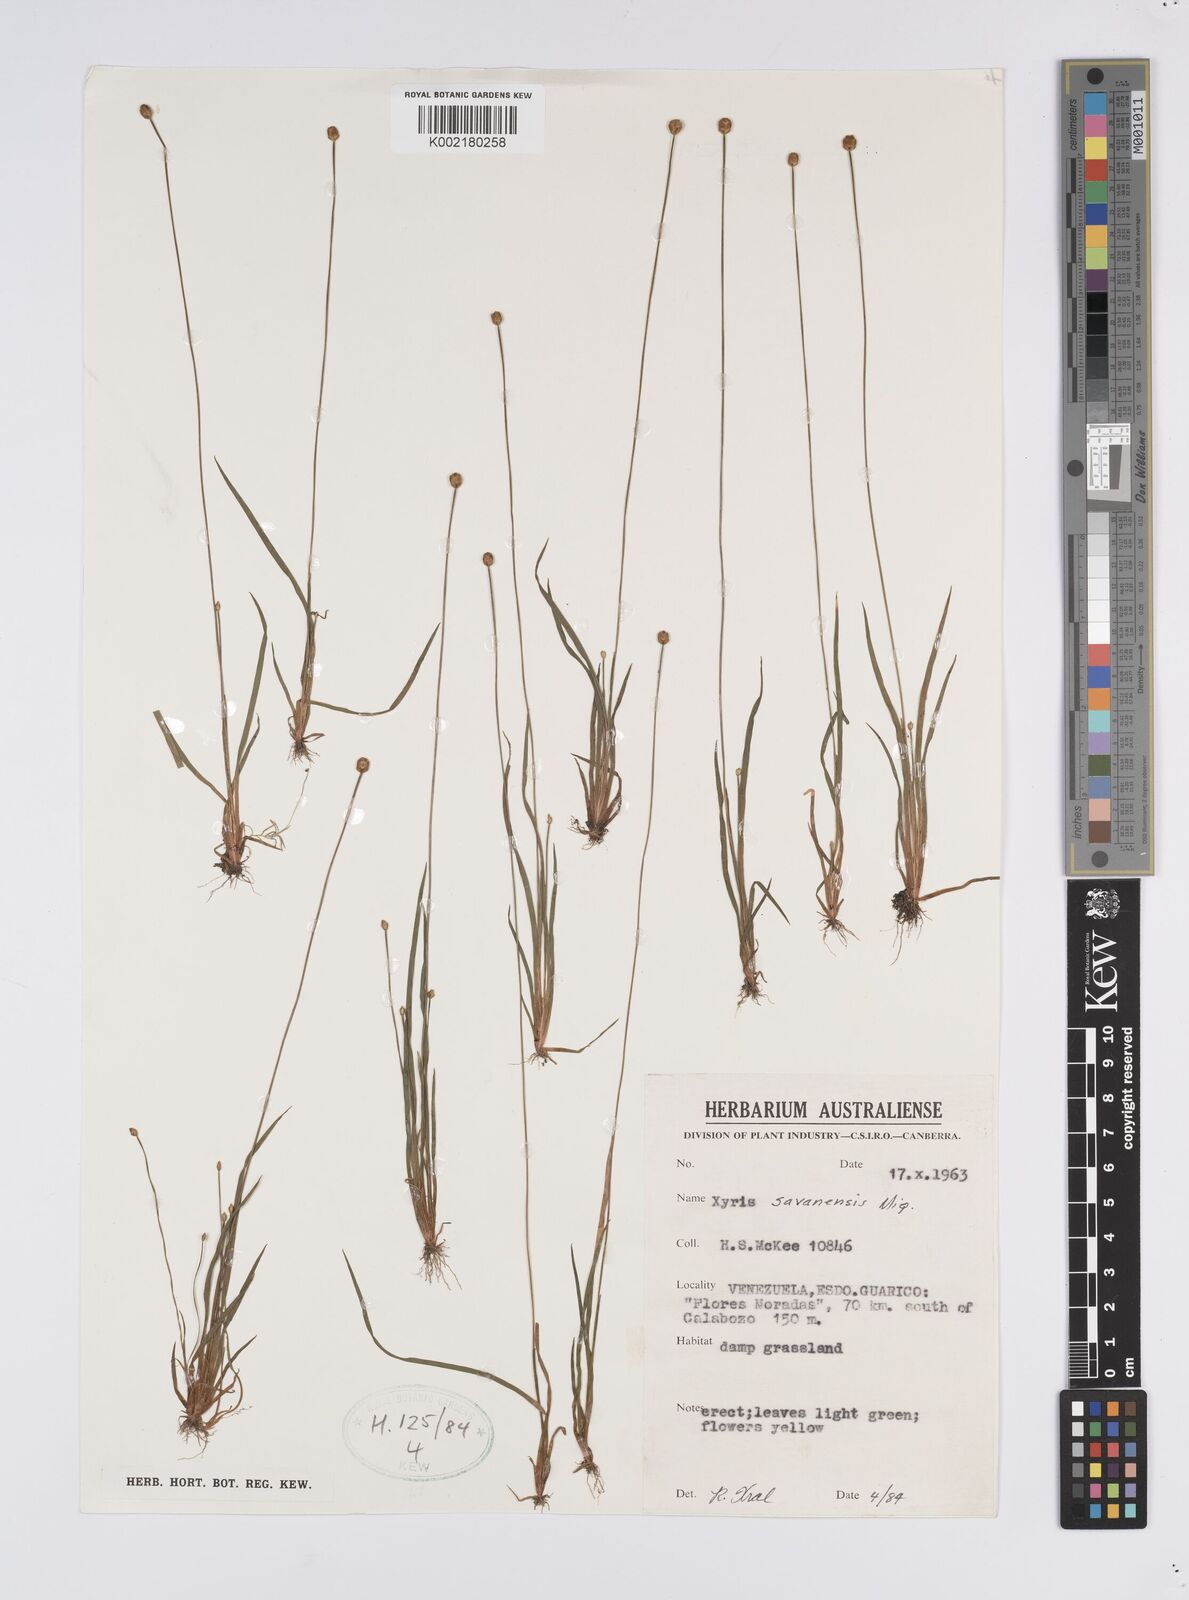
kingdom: Plantae
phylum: Tracheophyta
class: Liliopsida
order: Poales
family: Xyridaceae
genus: Xyris
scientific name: Xyris savanensis
